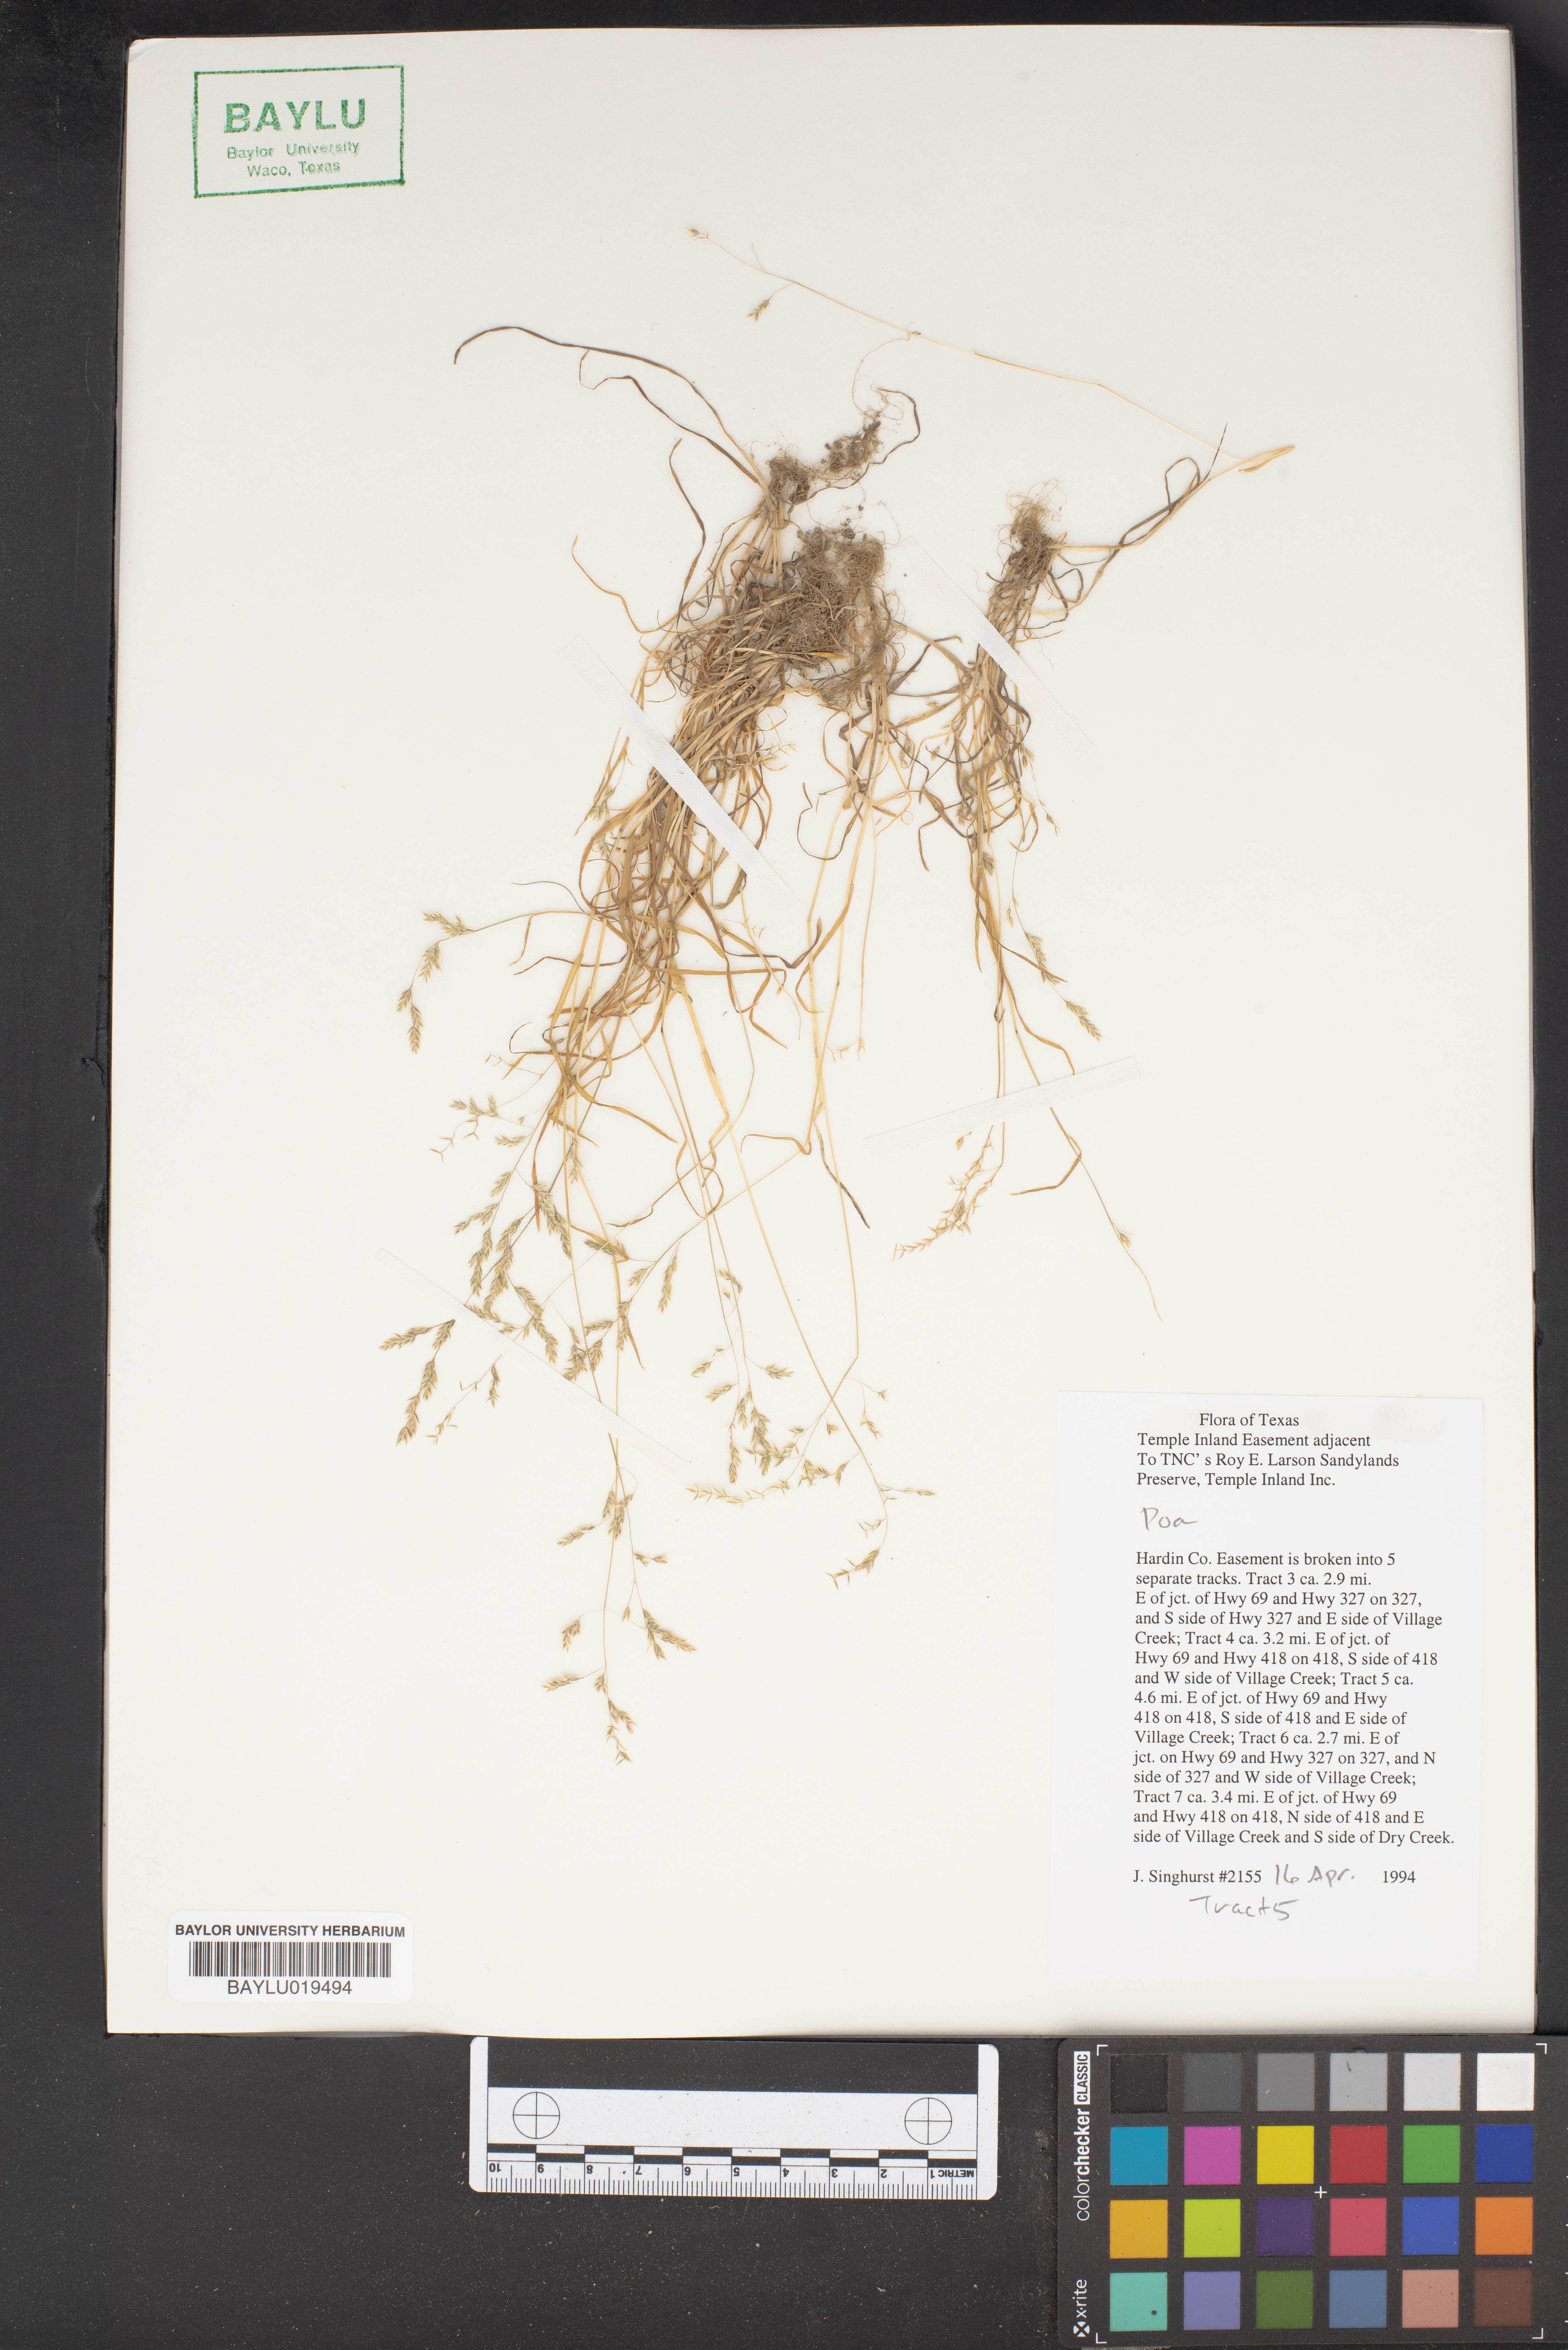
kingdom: Plantae
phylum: Tracheophyta
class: Liliopsida
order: Poales
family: Poaceae
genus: Poa
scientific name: Poa
